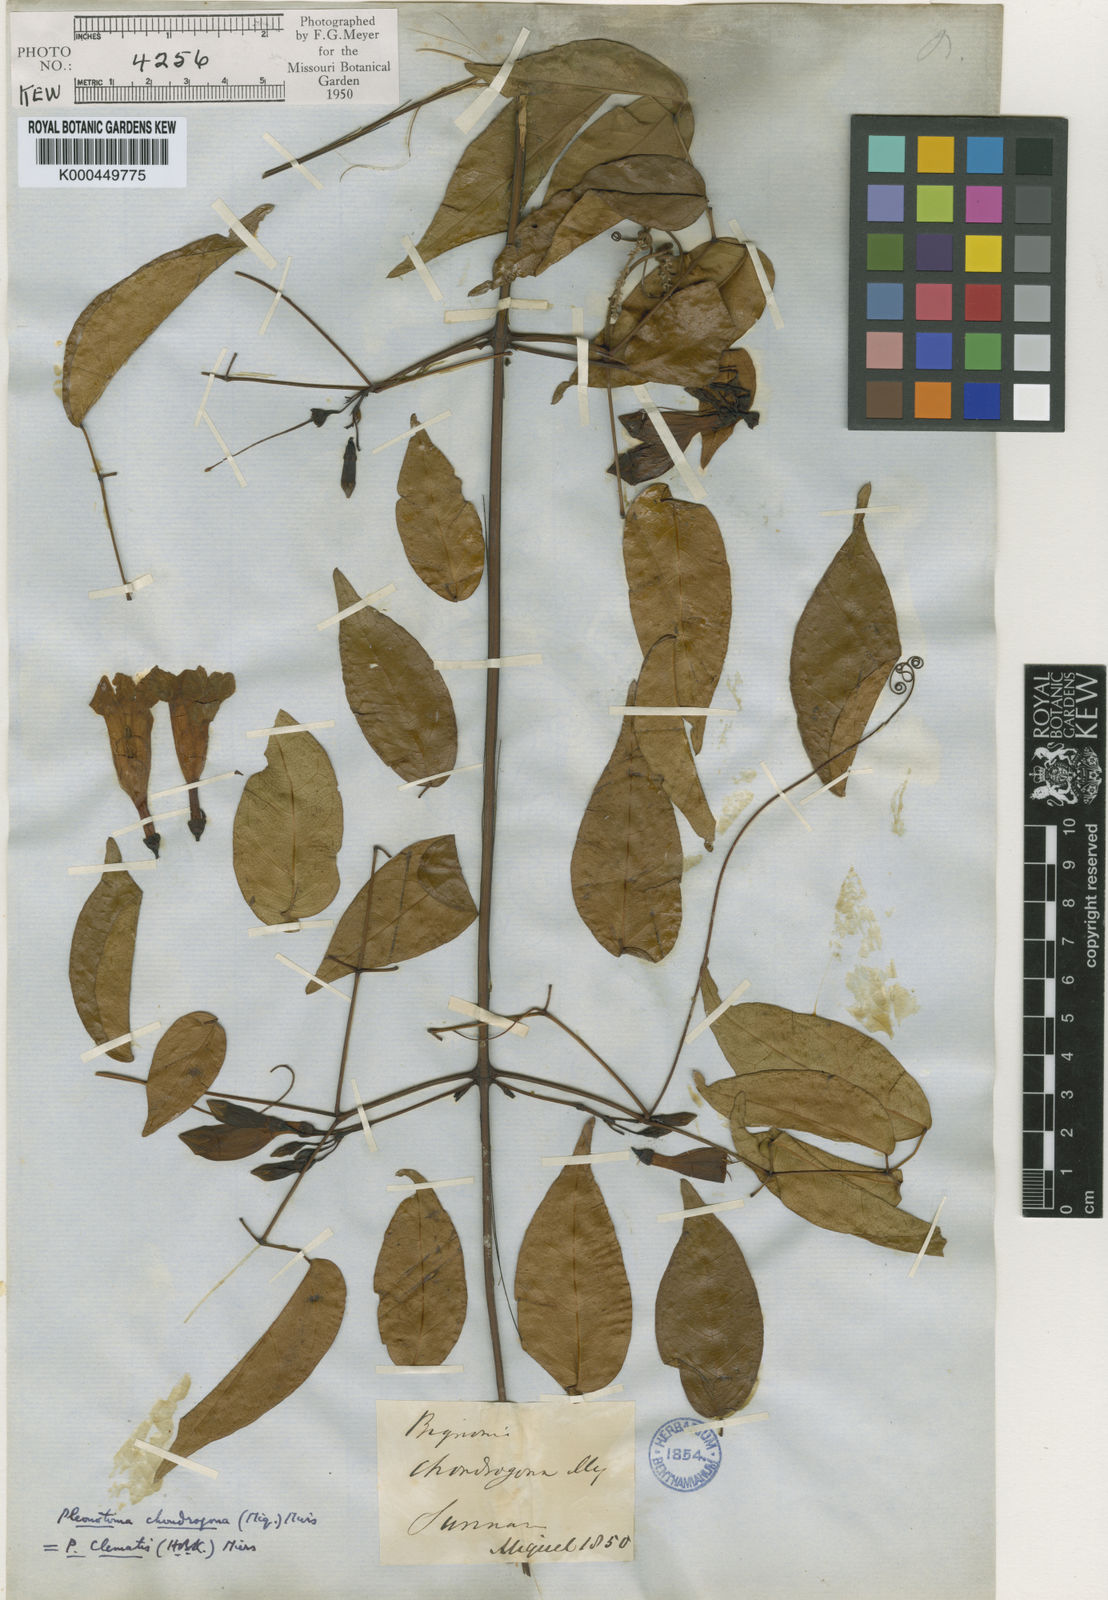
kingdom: Plantae
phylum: Tracheophyta
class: Magnoliopsida
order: Lamiales
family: Bignoniaceae
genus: Pleonotoma
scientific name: Pleonotoma
